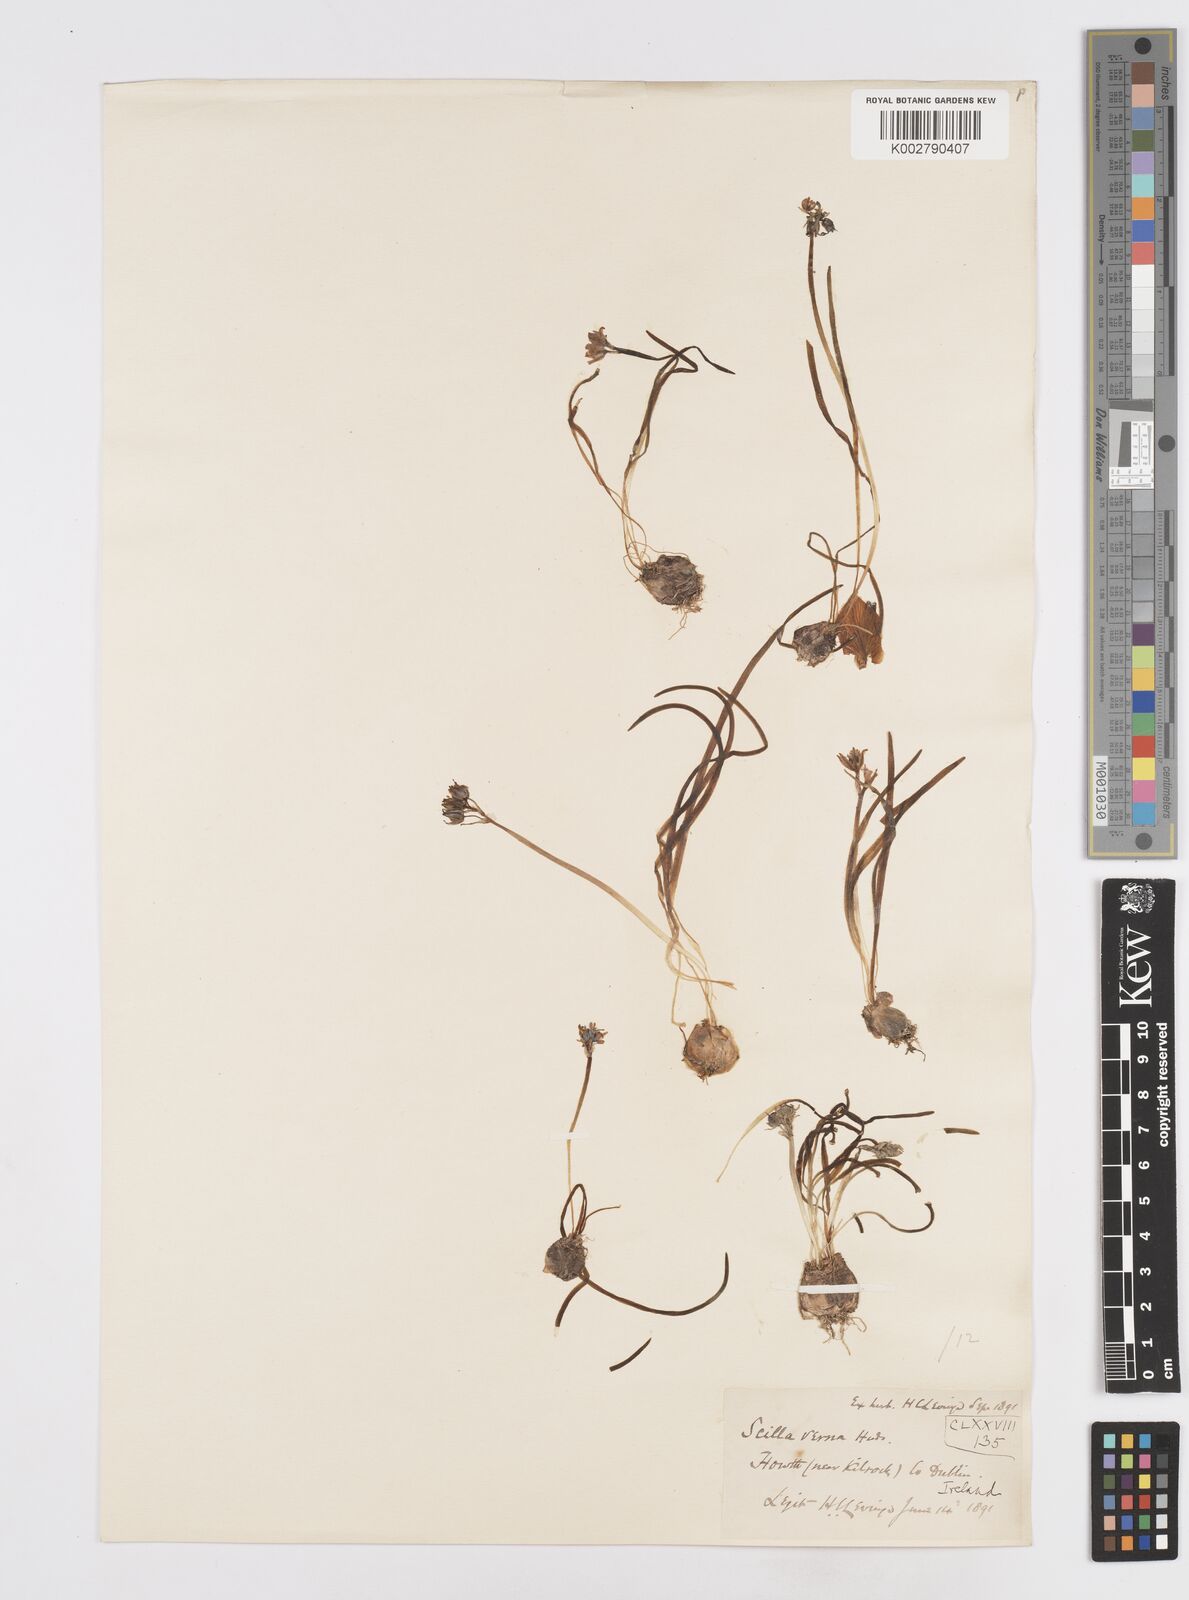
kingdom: Plantae
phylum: Tracheophyta
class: Liliopsida
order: Asparagales
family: Asparagaceae
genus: Scilla
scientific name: Scilla verna
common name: Spring squill
